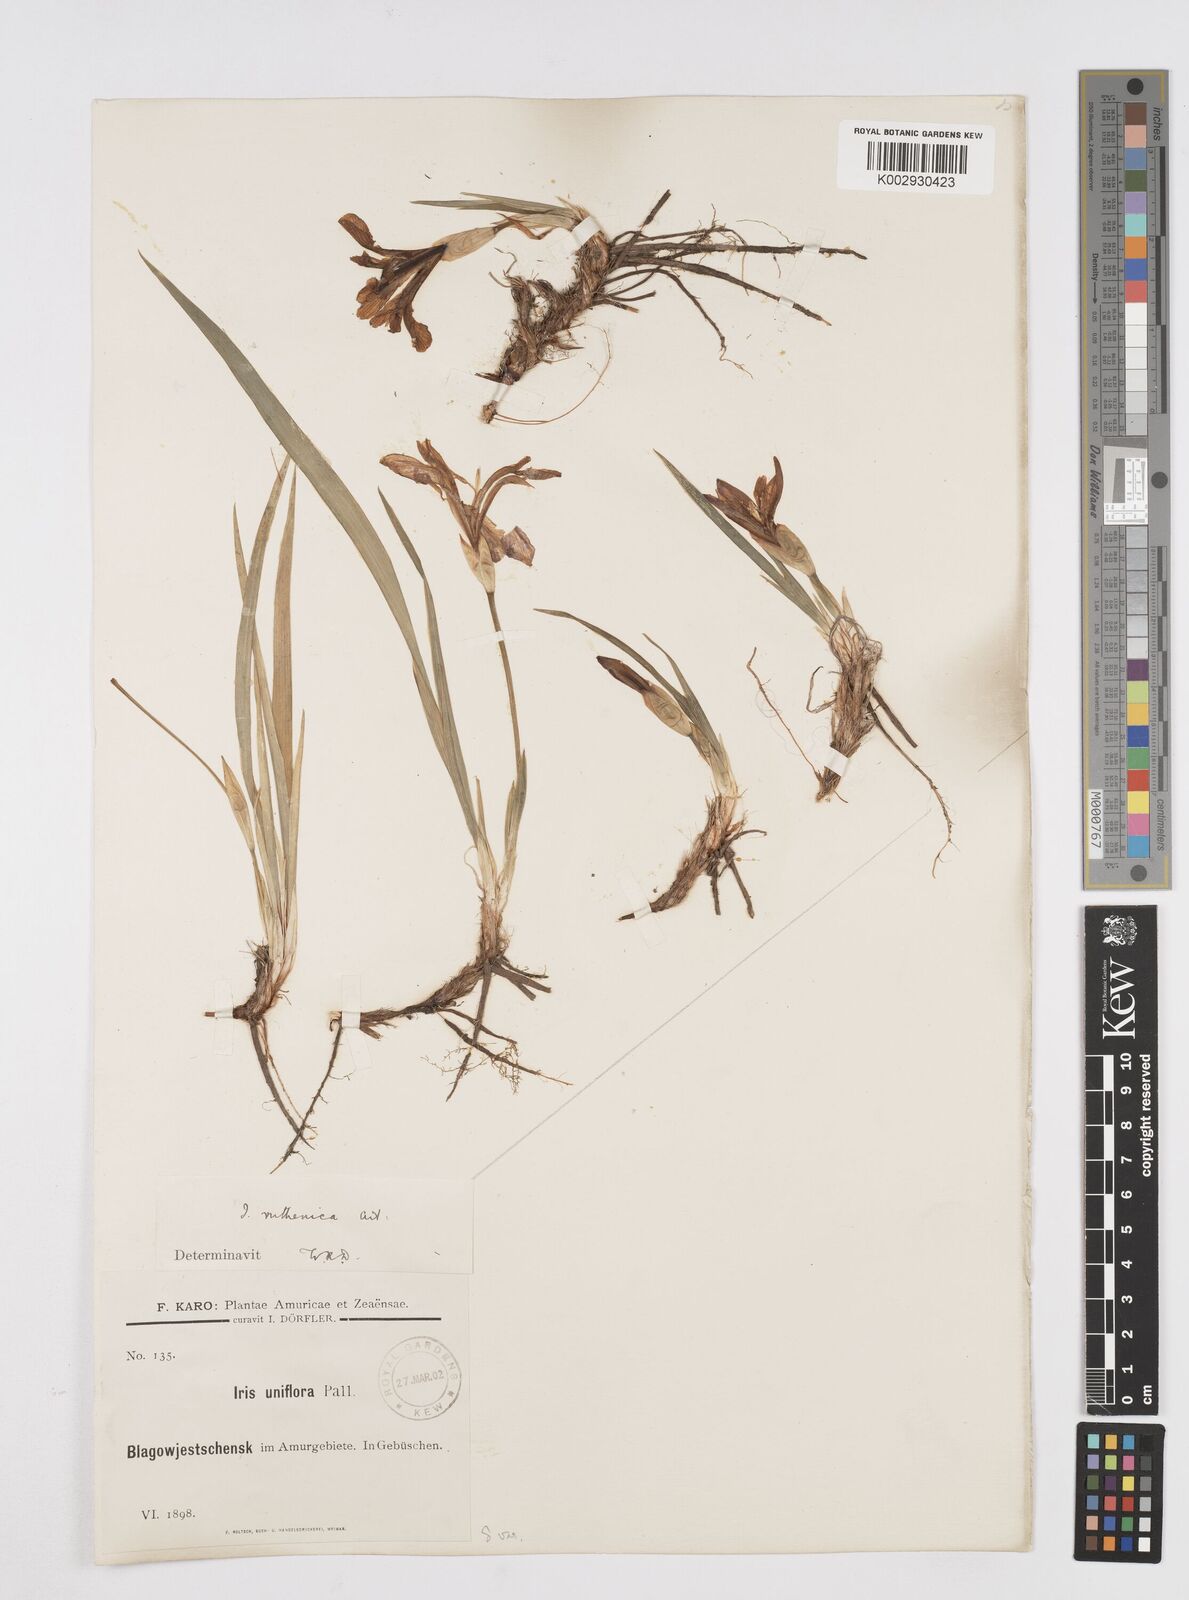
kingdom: Plantae
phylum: Tracheophyta
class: Liliopsida
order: Asparagales
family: Iridaceae
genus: Iris
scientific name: Iris uniflora
